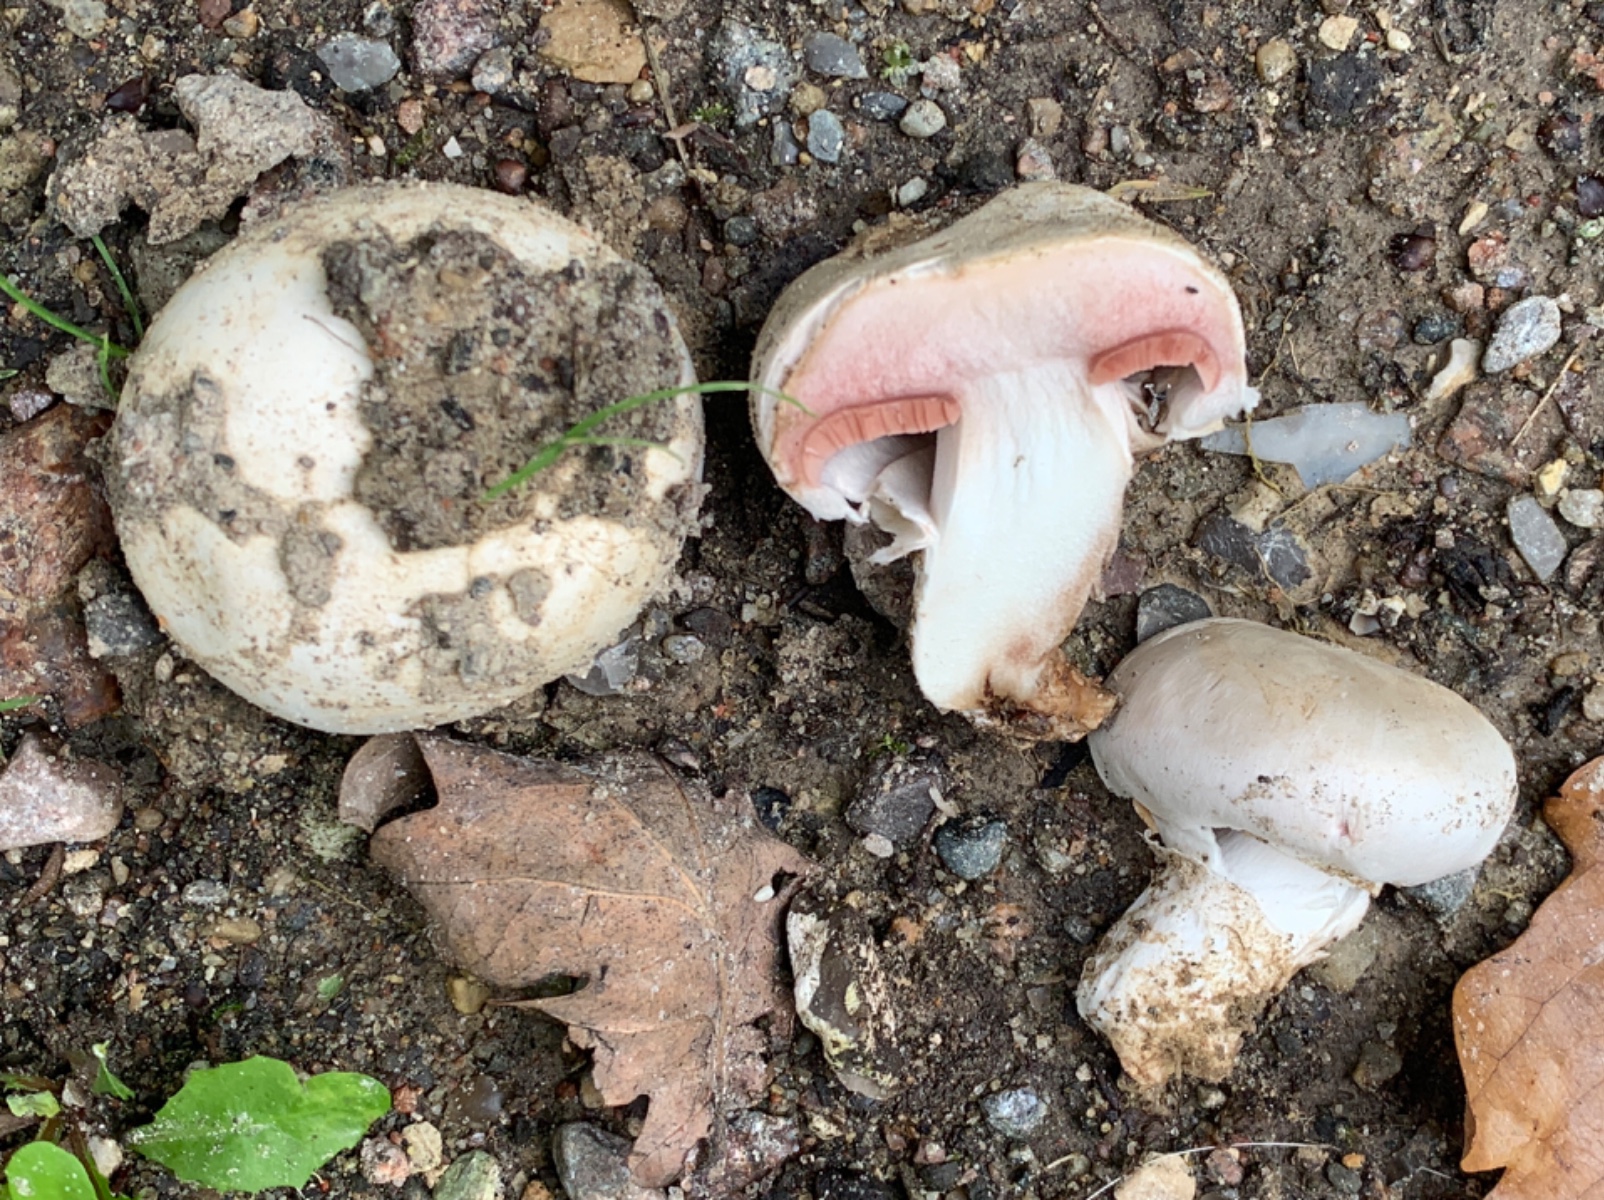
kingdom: Fungi
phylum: Basidiomycota
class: Agaricomycetes
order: Agaricales
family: Agaricaceae
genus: Agaricus
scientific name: Agaricus bitorquis
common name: vej-champignon
